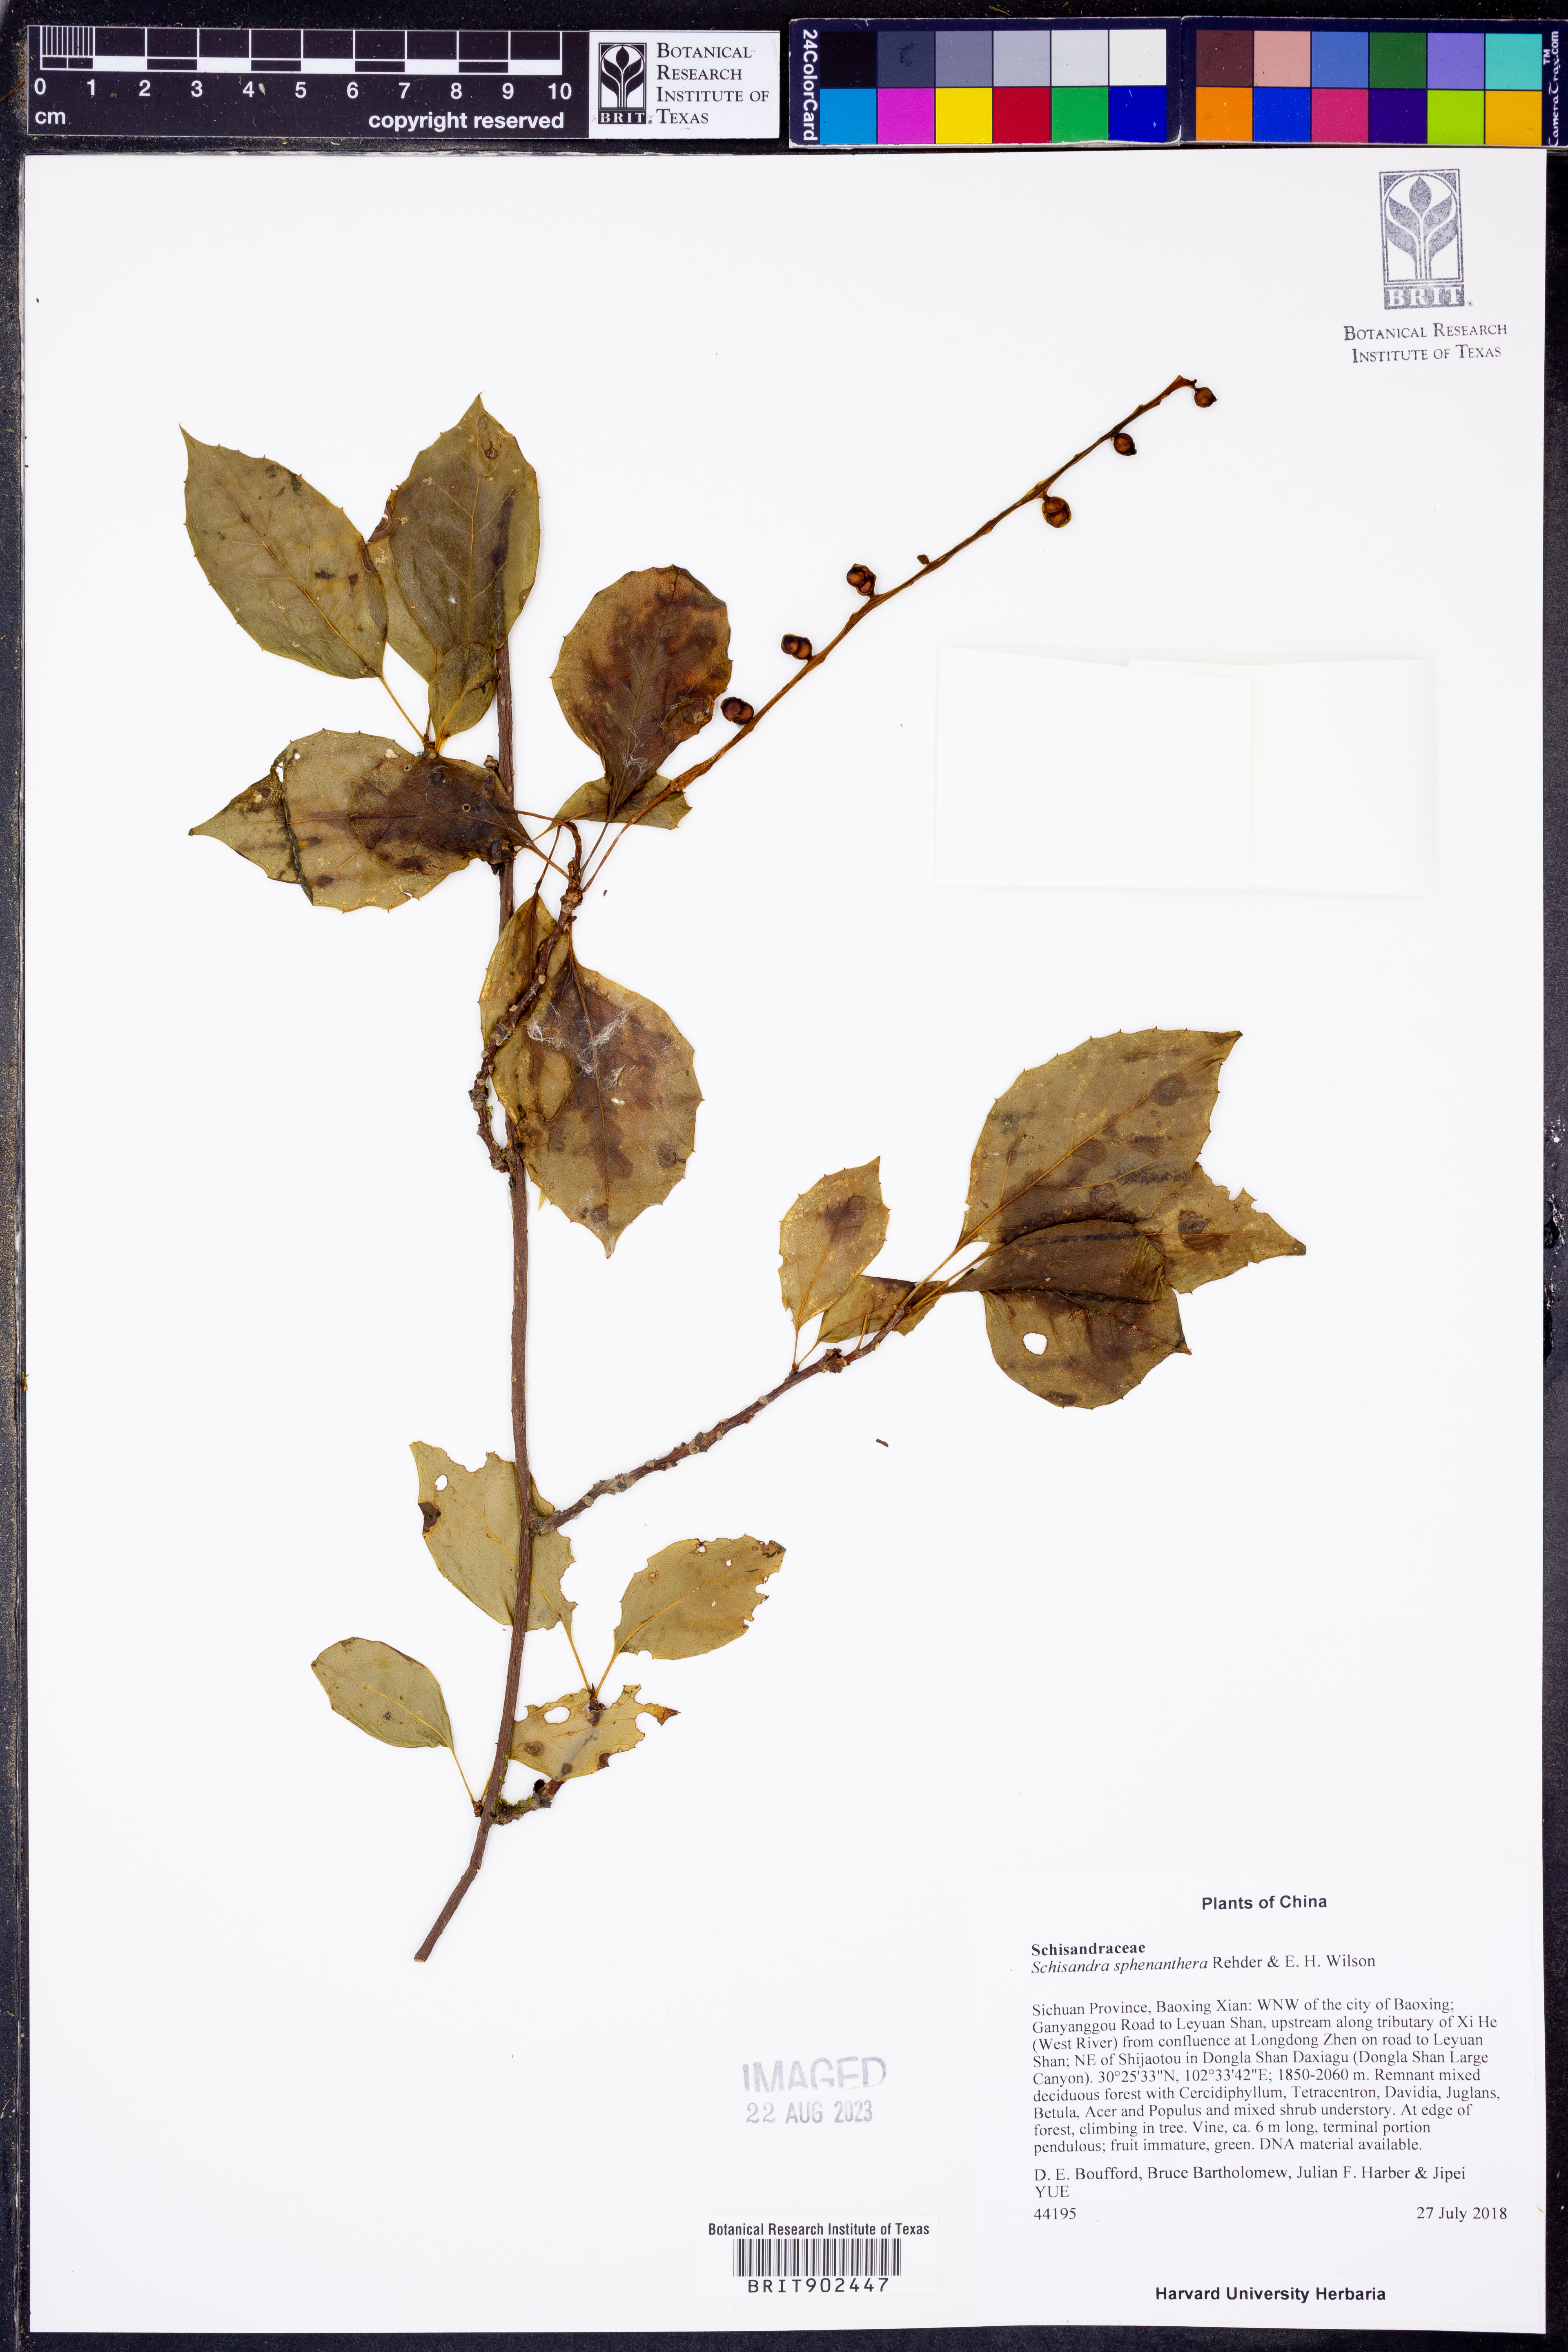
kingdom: Plantae
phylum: Tracheophyta
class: Magnoliopsida
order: Austrobaileyales
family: Schisandraceae
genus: Schisandra
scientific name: Schisandra sphenanthera
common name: Lemonwood
